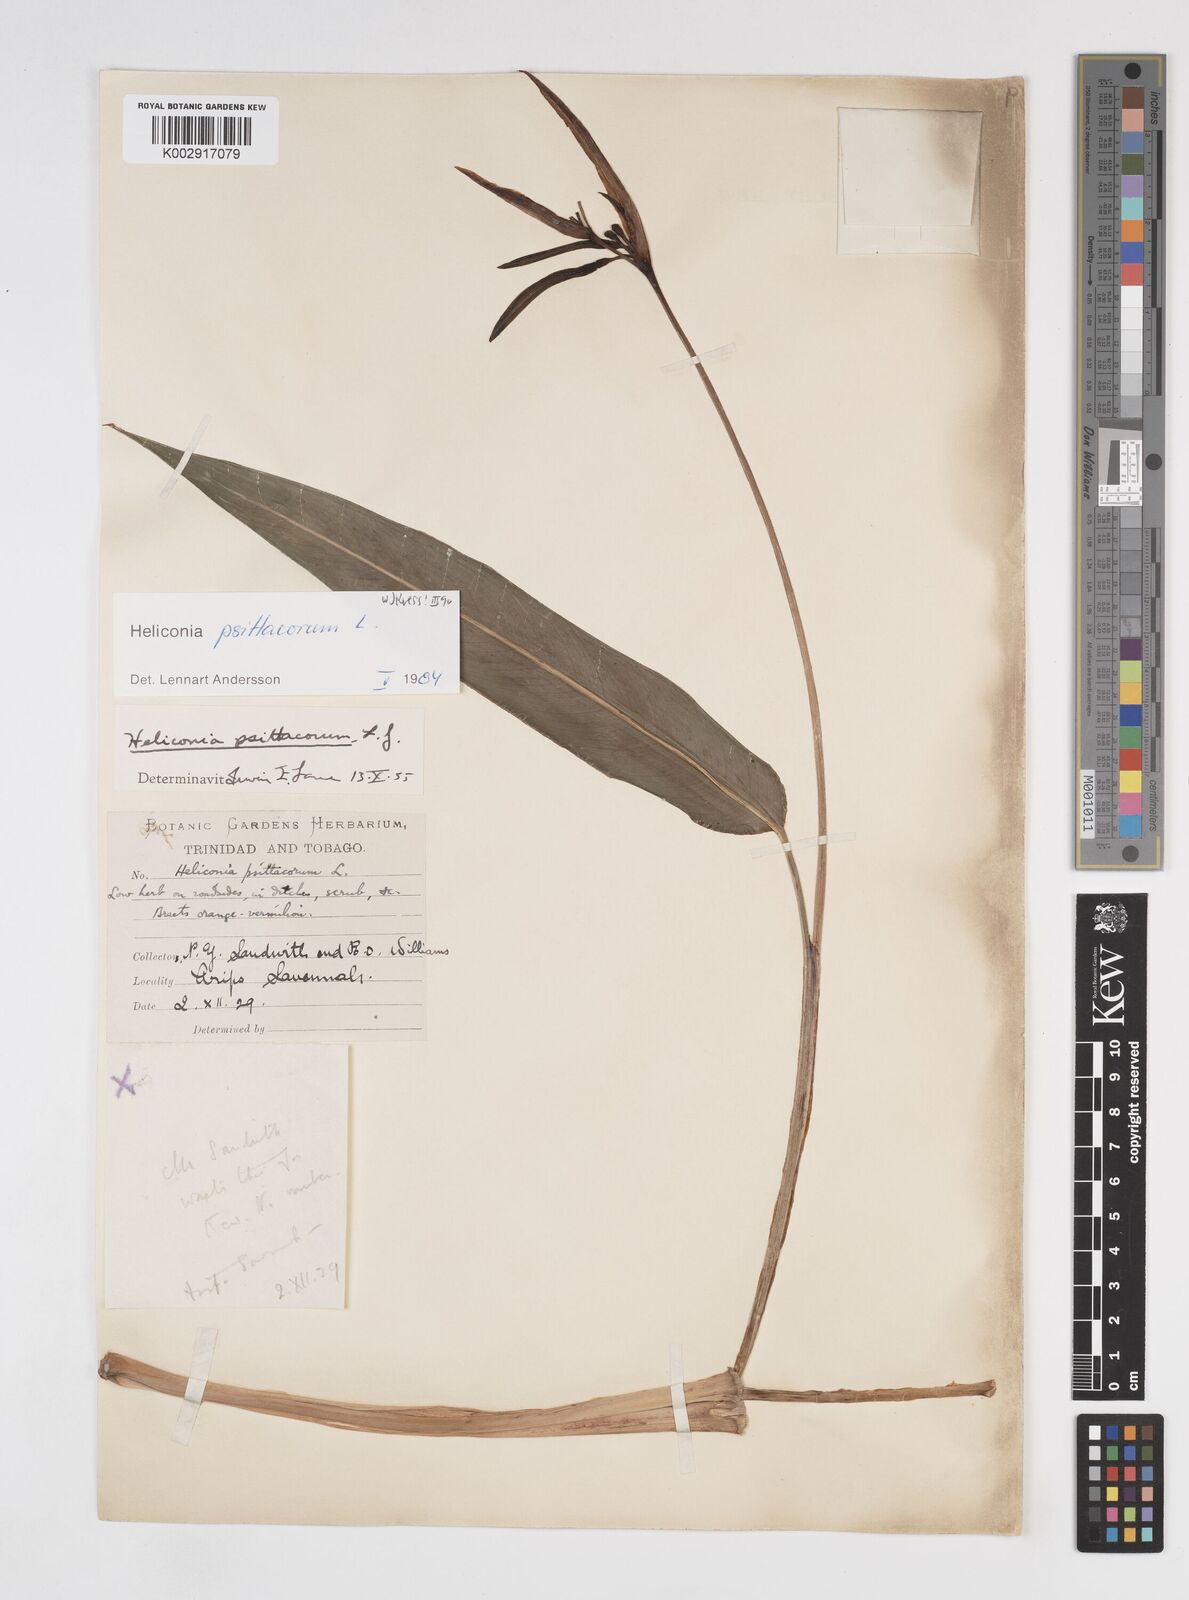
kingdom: Plantae
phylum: Tracheophyta
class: Liliopsida
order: Zingiberales
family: Heliconiaceae
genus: Heliconia
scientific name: Heliconia psittacorum
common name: Parrot's-flower
